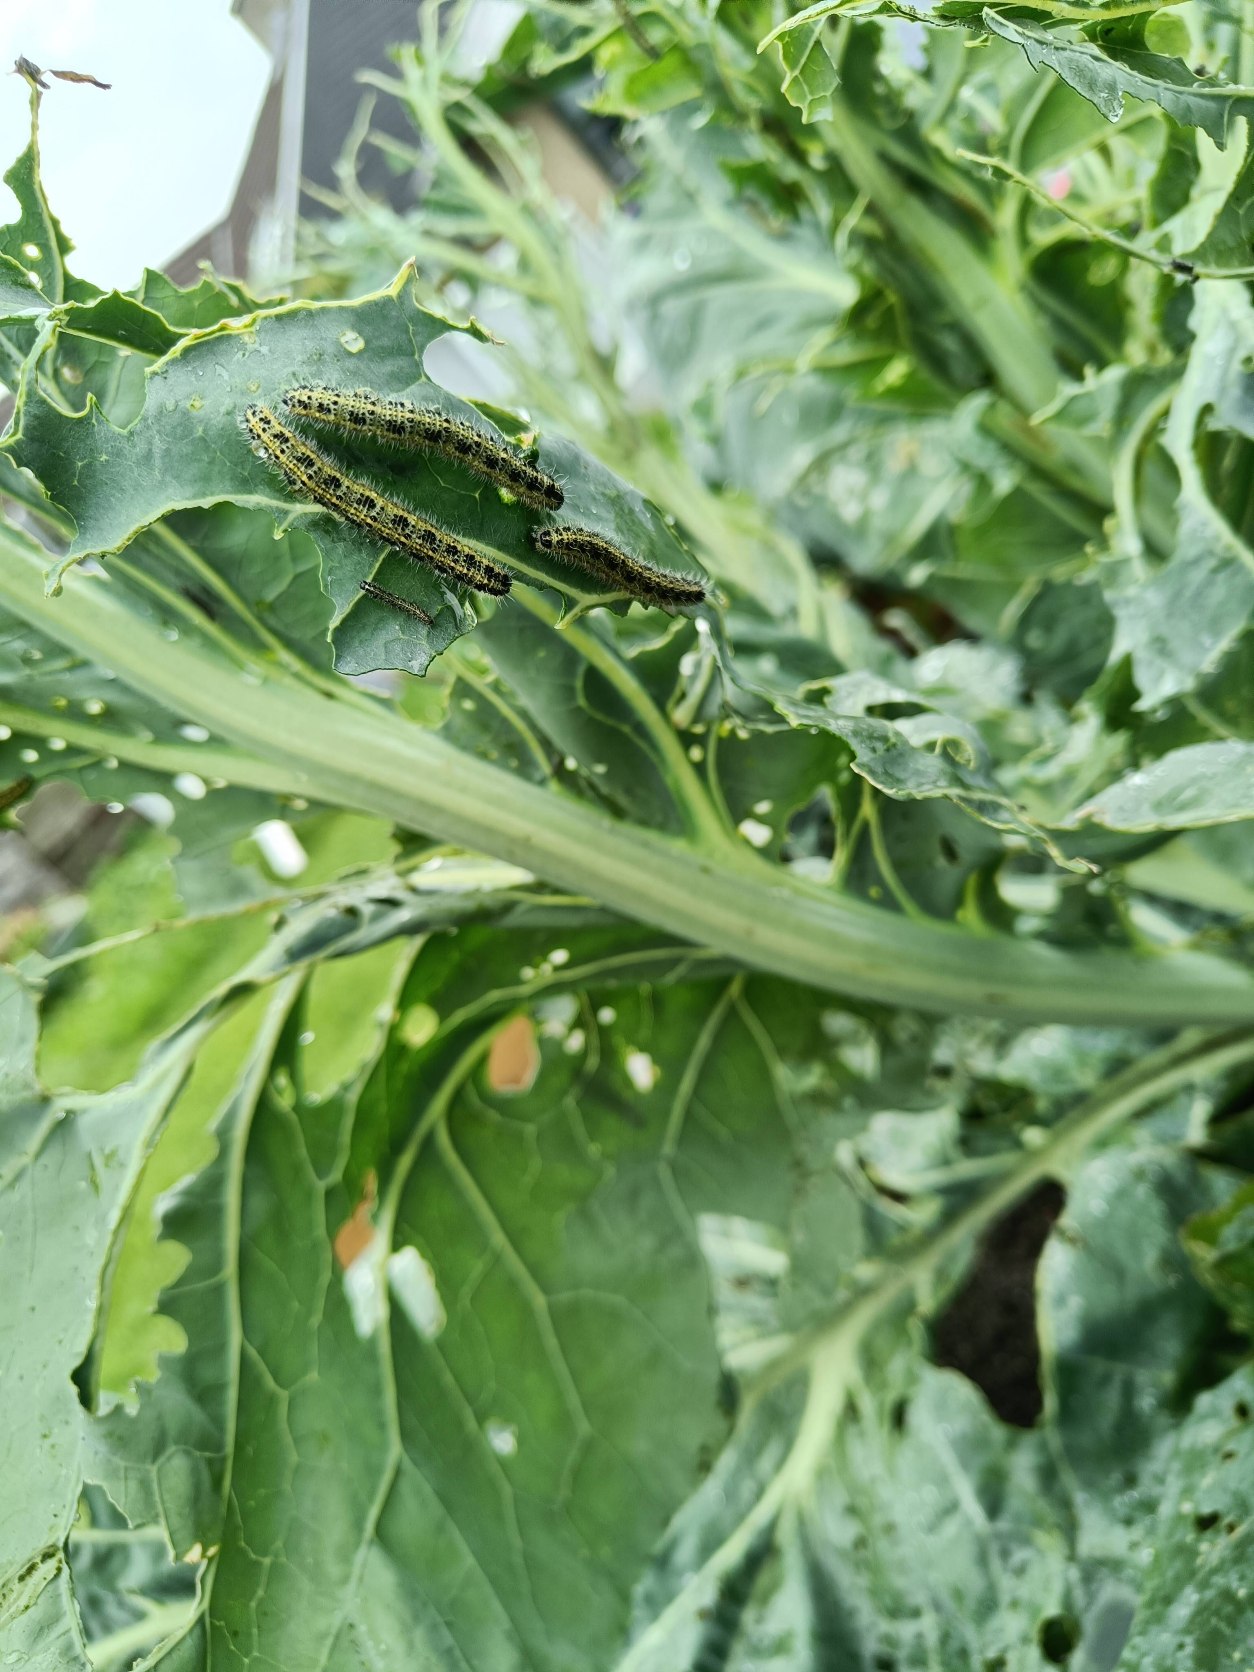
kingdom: Animalia
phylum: Arthropoda
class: Insecta
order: Lepidoptera
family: Pieridae
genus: Pieris
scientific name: Pieris brassicae
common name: Stor kålsommerfugl
